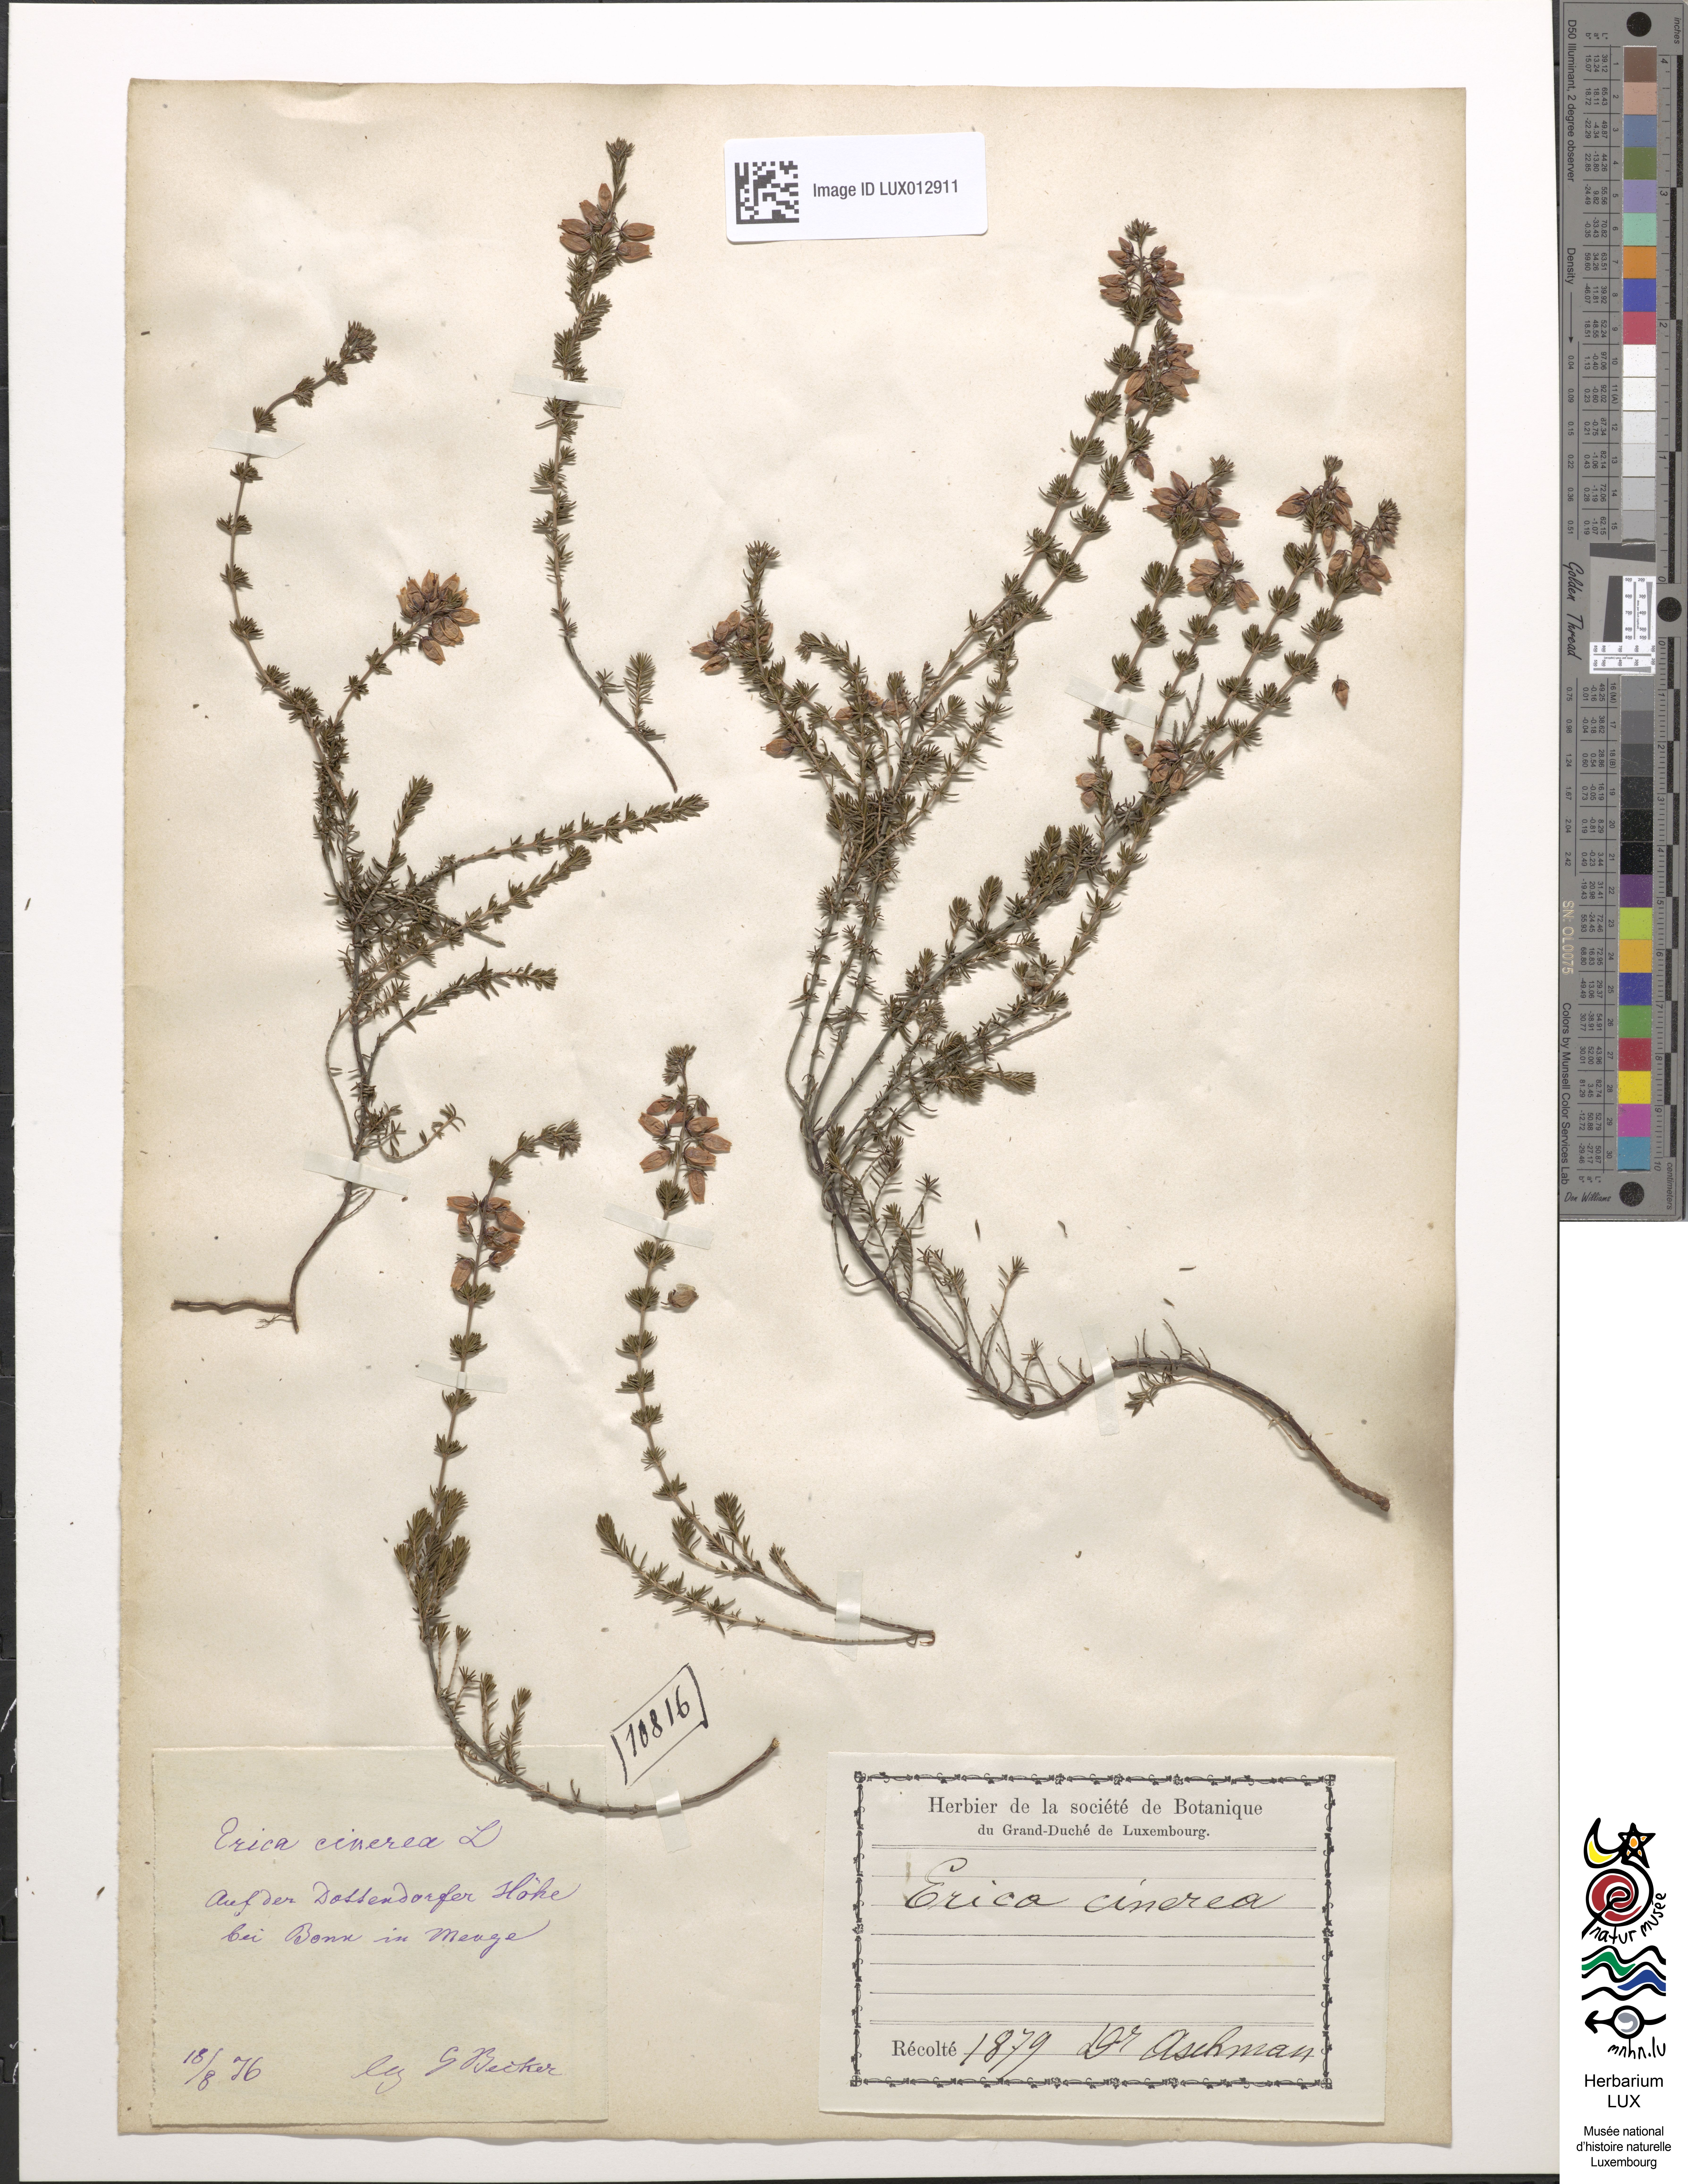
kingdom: Plantae
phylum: Tracheophyta
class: Magnoliopsida
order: Ericales
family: Ericaceae
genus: Erica
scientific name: Erica cinerea
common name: Bell heather
